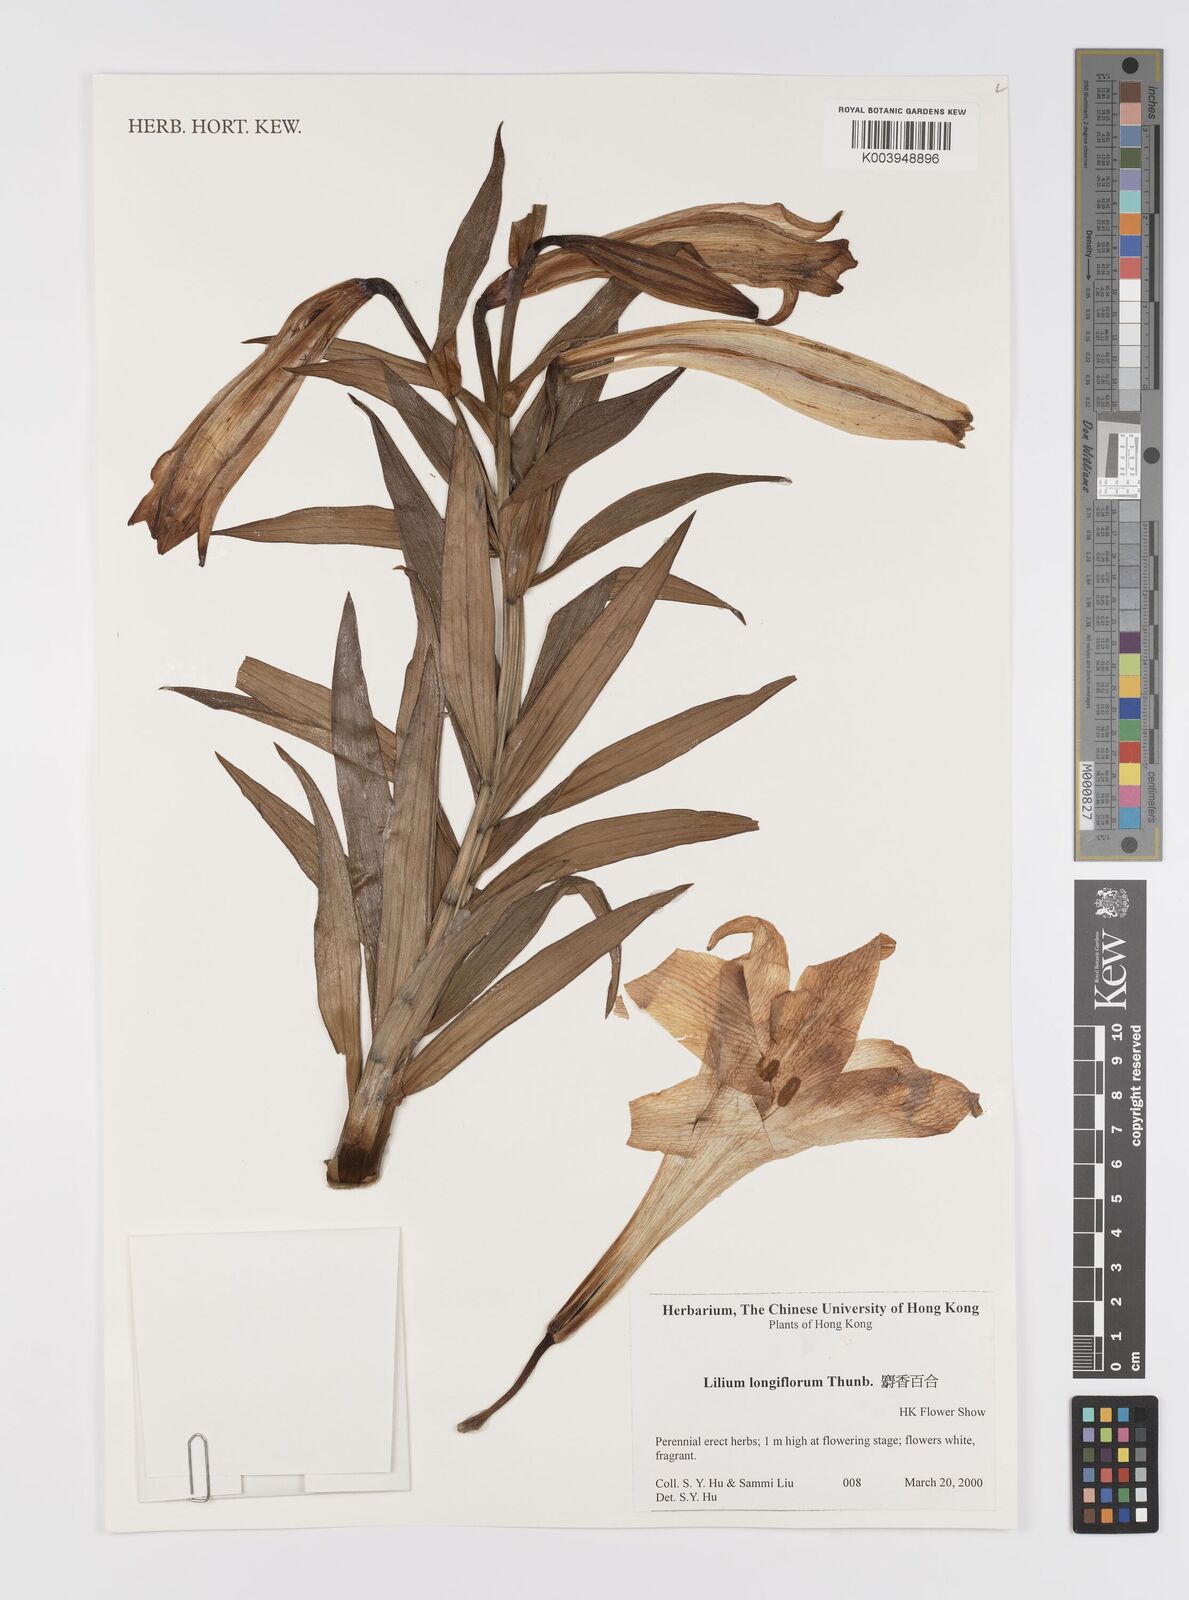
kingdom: Plantae
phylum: Tracheophyta
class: Liliopsida
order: Liliales
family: Liliaceae
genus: Lilium
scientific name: Lilium
